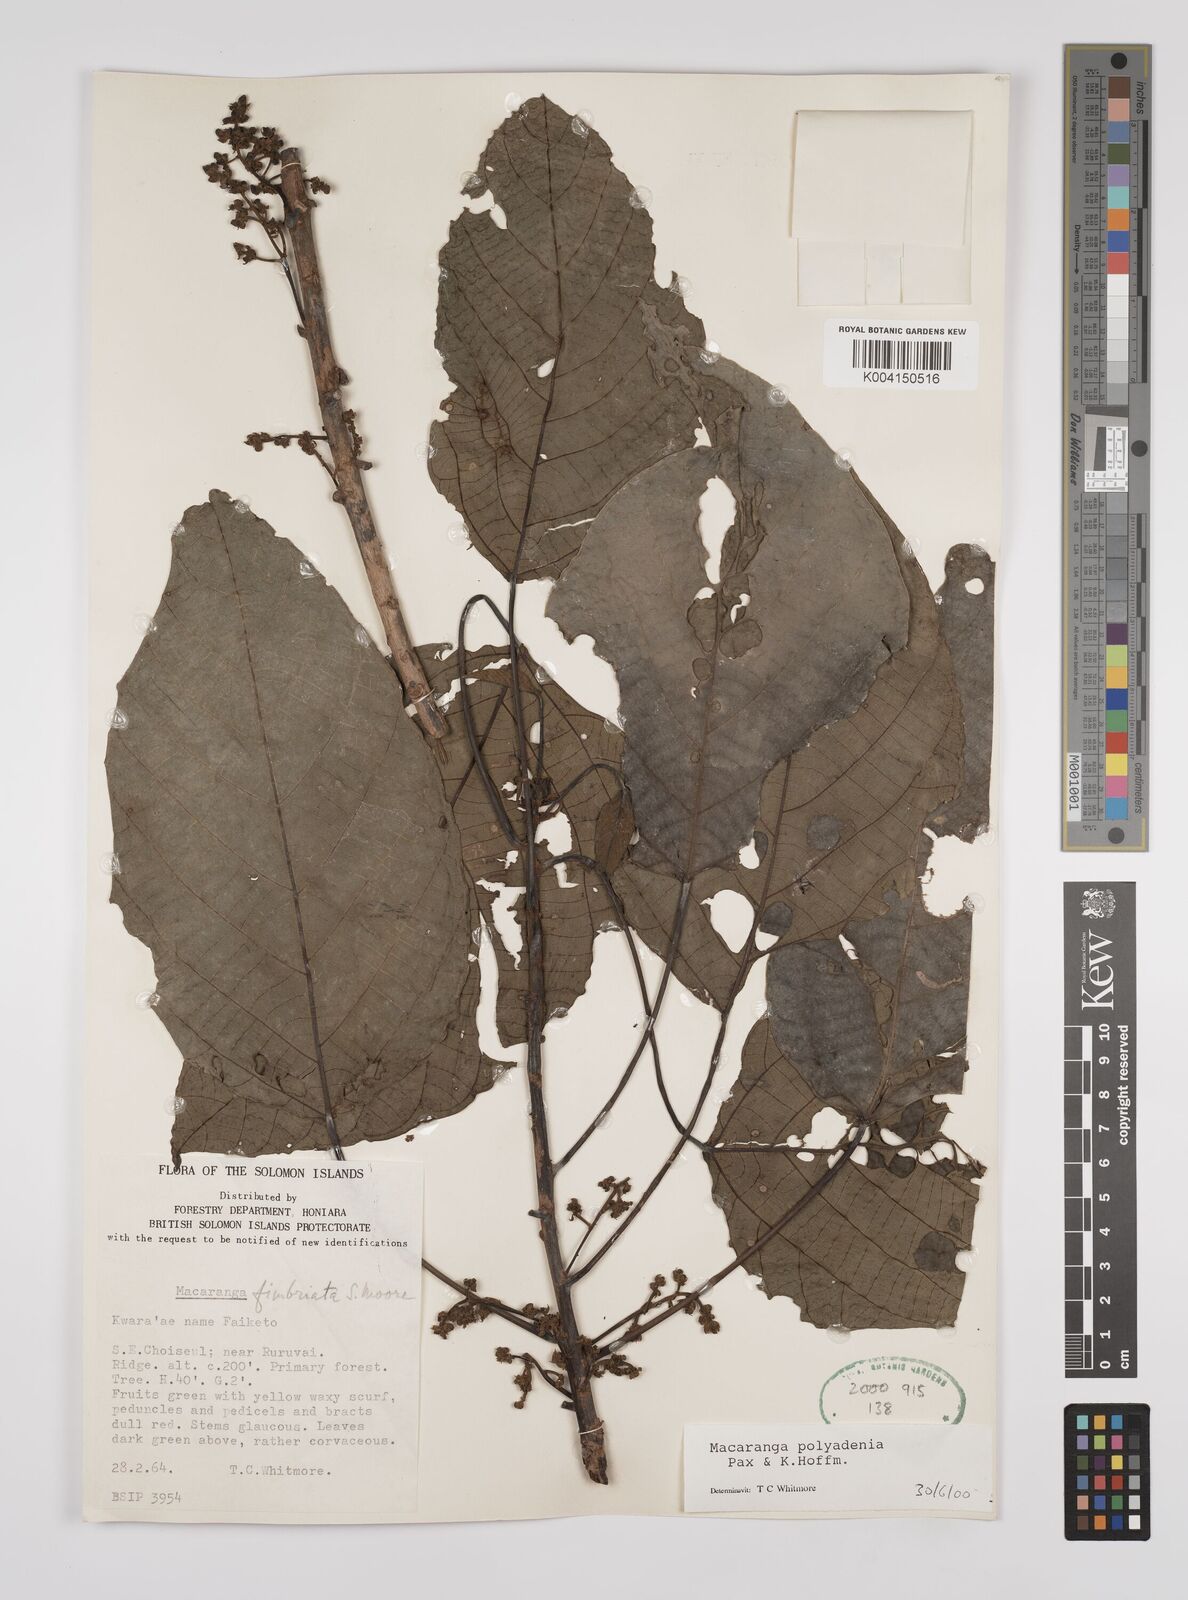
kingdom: Plantae
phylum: Tracheophyta
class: Magnoliopsida
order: Malpighiales
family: Euphorbiaceae
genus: Macaranga
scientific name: Macaranga polyadenia
